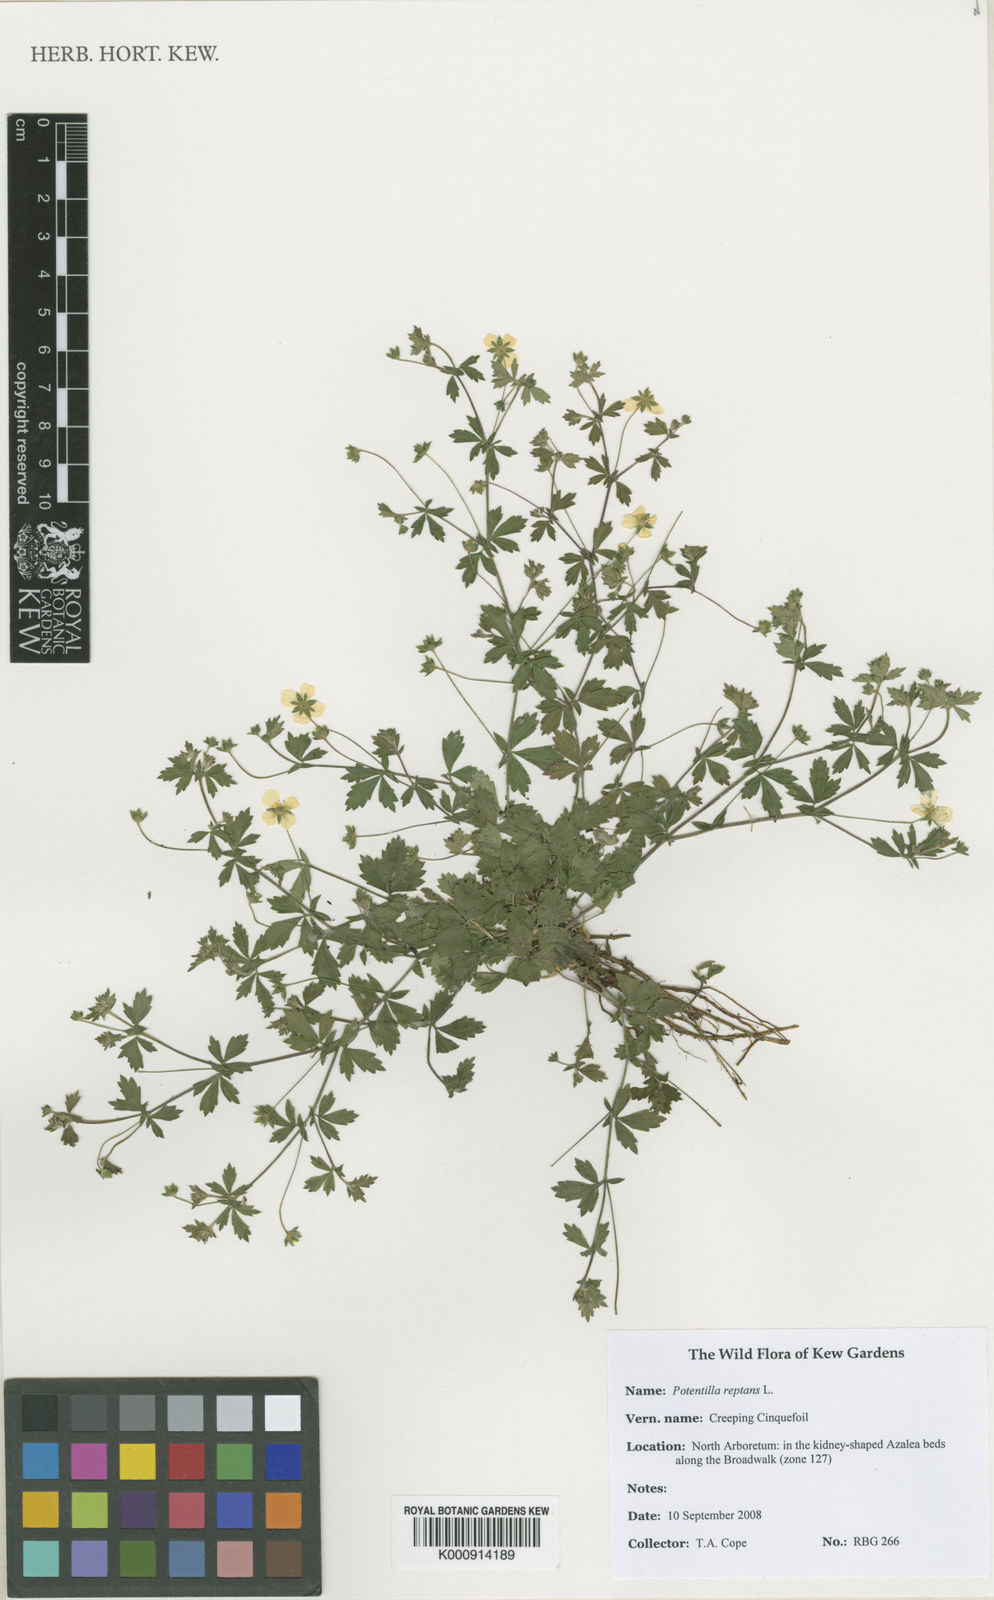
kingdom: Plantae
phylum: Tracheophyta
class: Magnoliopsida
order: Rosales
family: Rosaceae
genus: Potentilla
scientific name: Potentilla reptans
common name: Creeping cinquefoil
